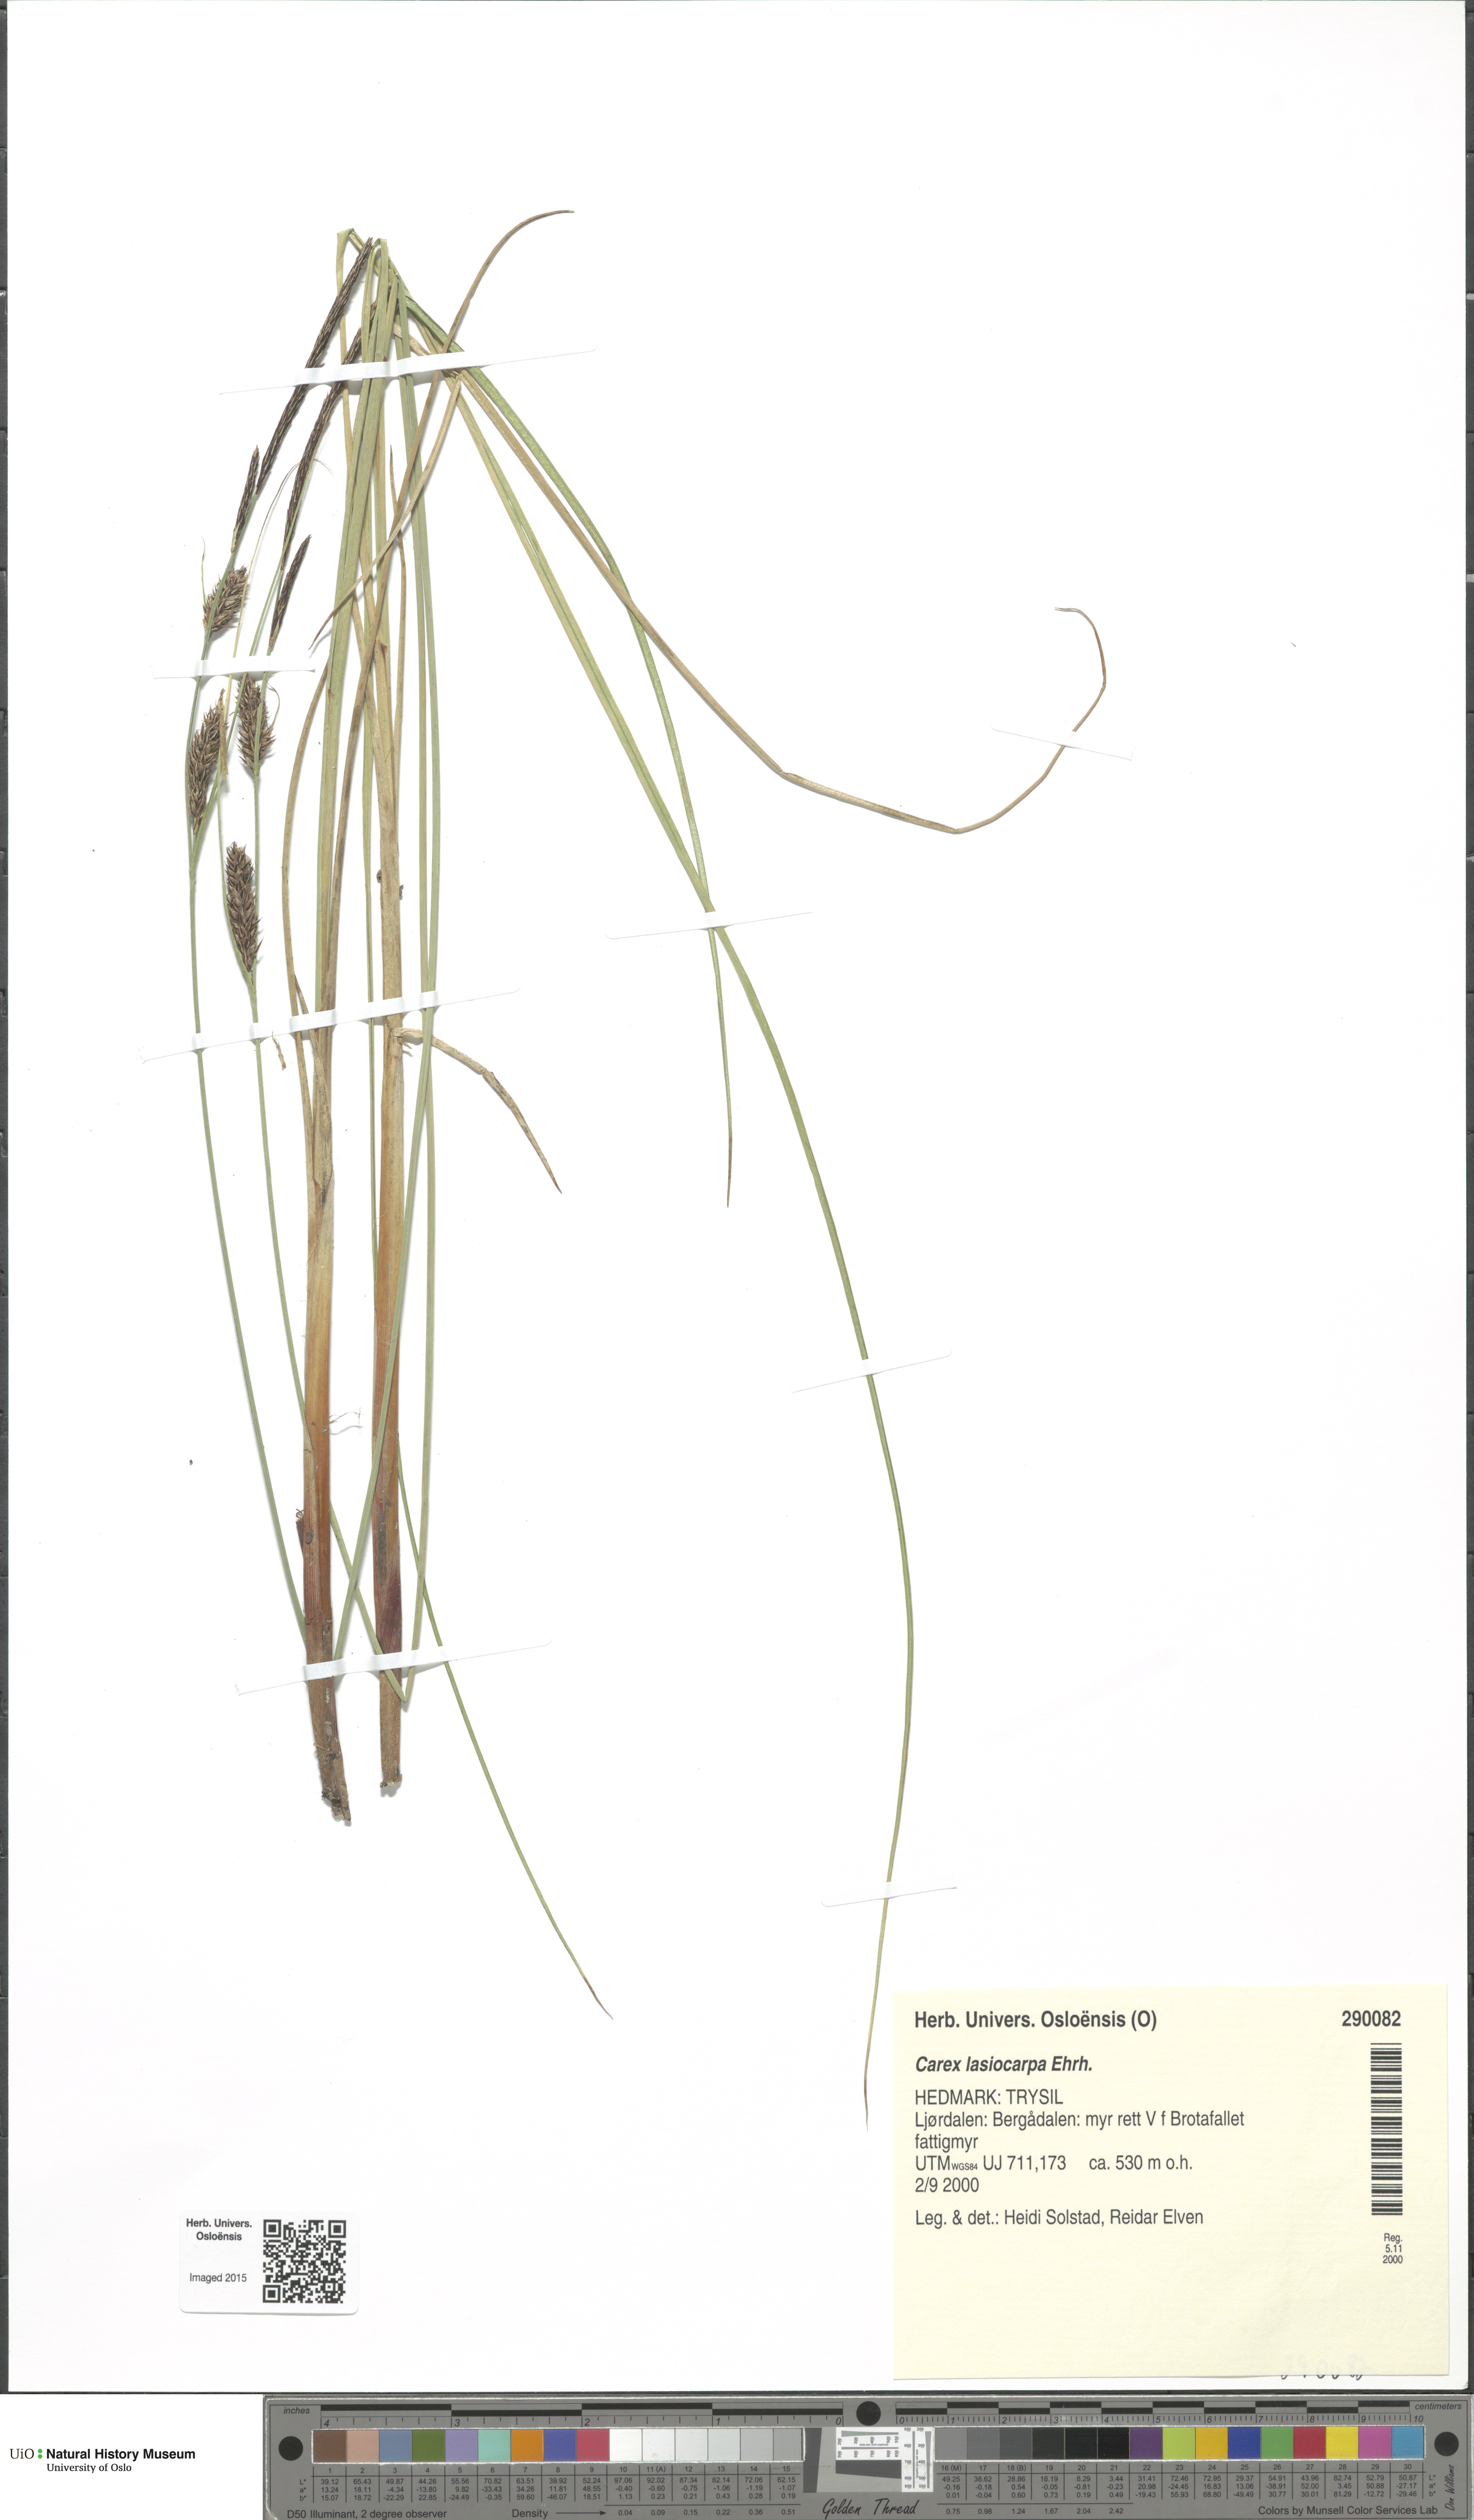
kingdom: Plantae
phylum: Tracheophyta
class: Liliopsida
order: Poales
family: Cyperaceae
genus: Carex
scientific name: Carex lasiocarpa
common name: Slender sedge
